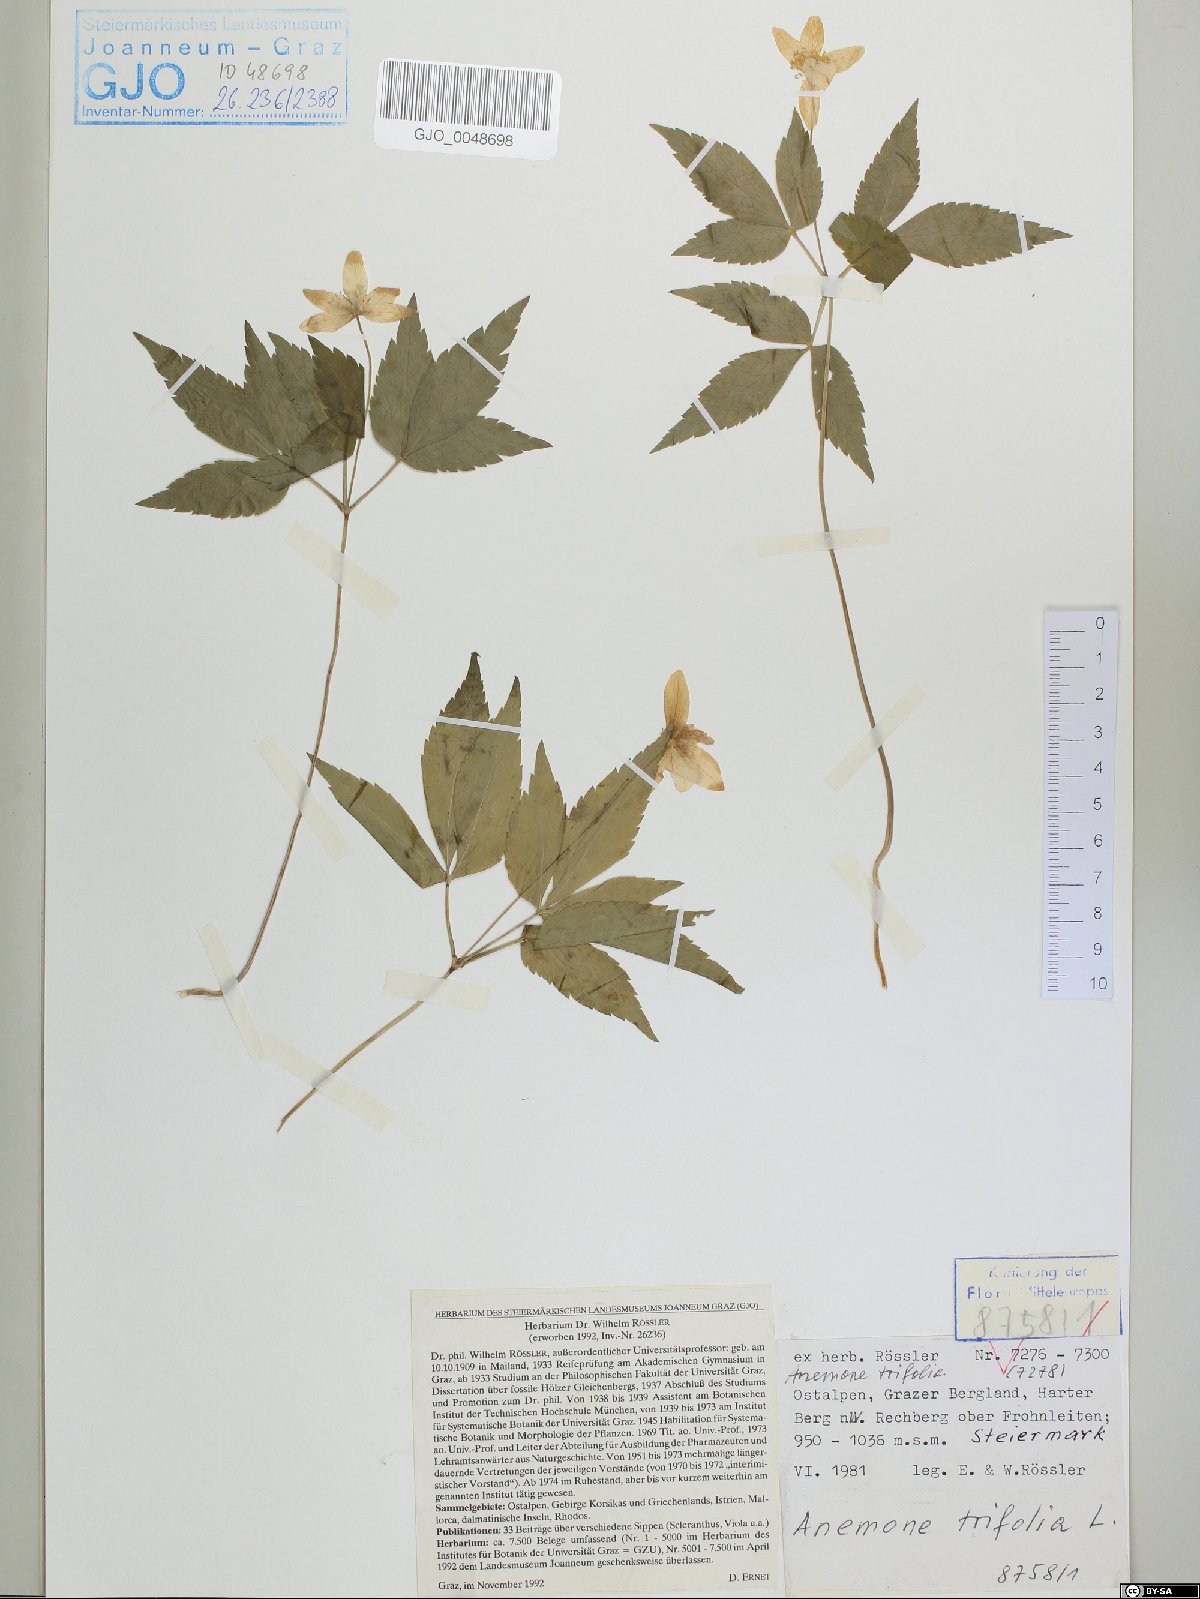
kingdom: Plantae
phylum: Tracheophyta
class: Magnoliopsida
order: Ranunculales
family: Ranunculaceae
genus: Anemone
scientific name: Anemone trifolia
